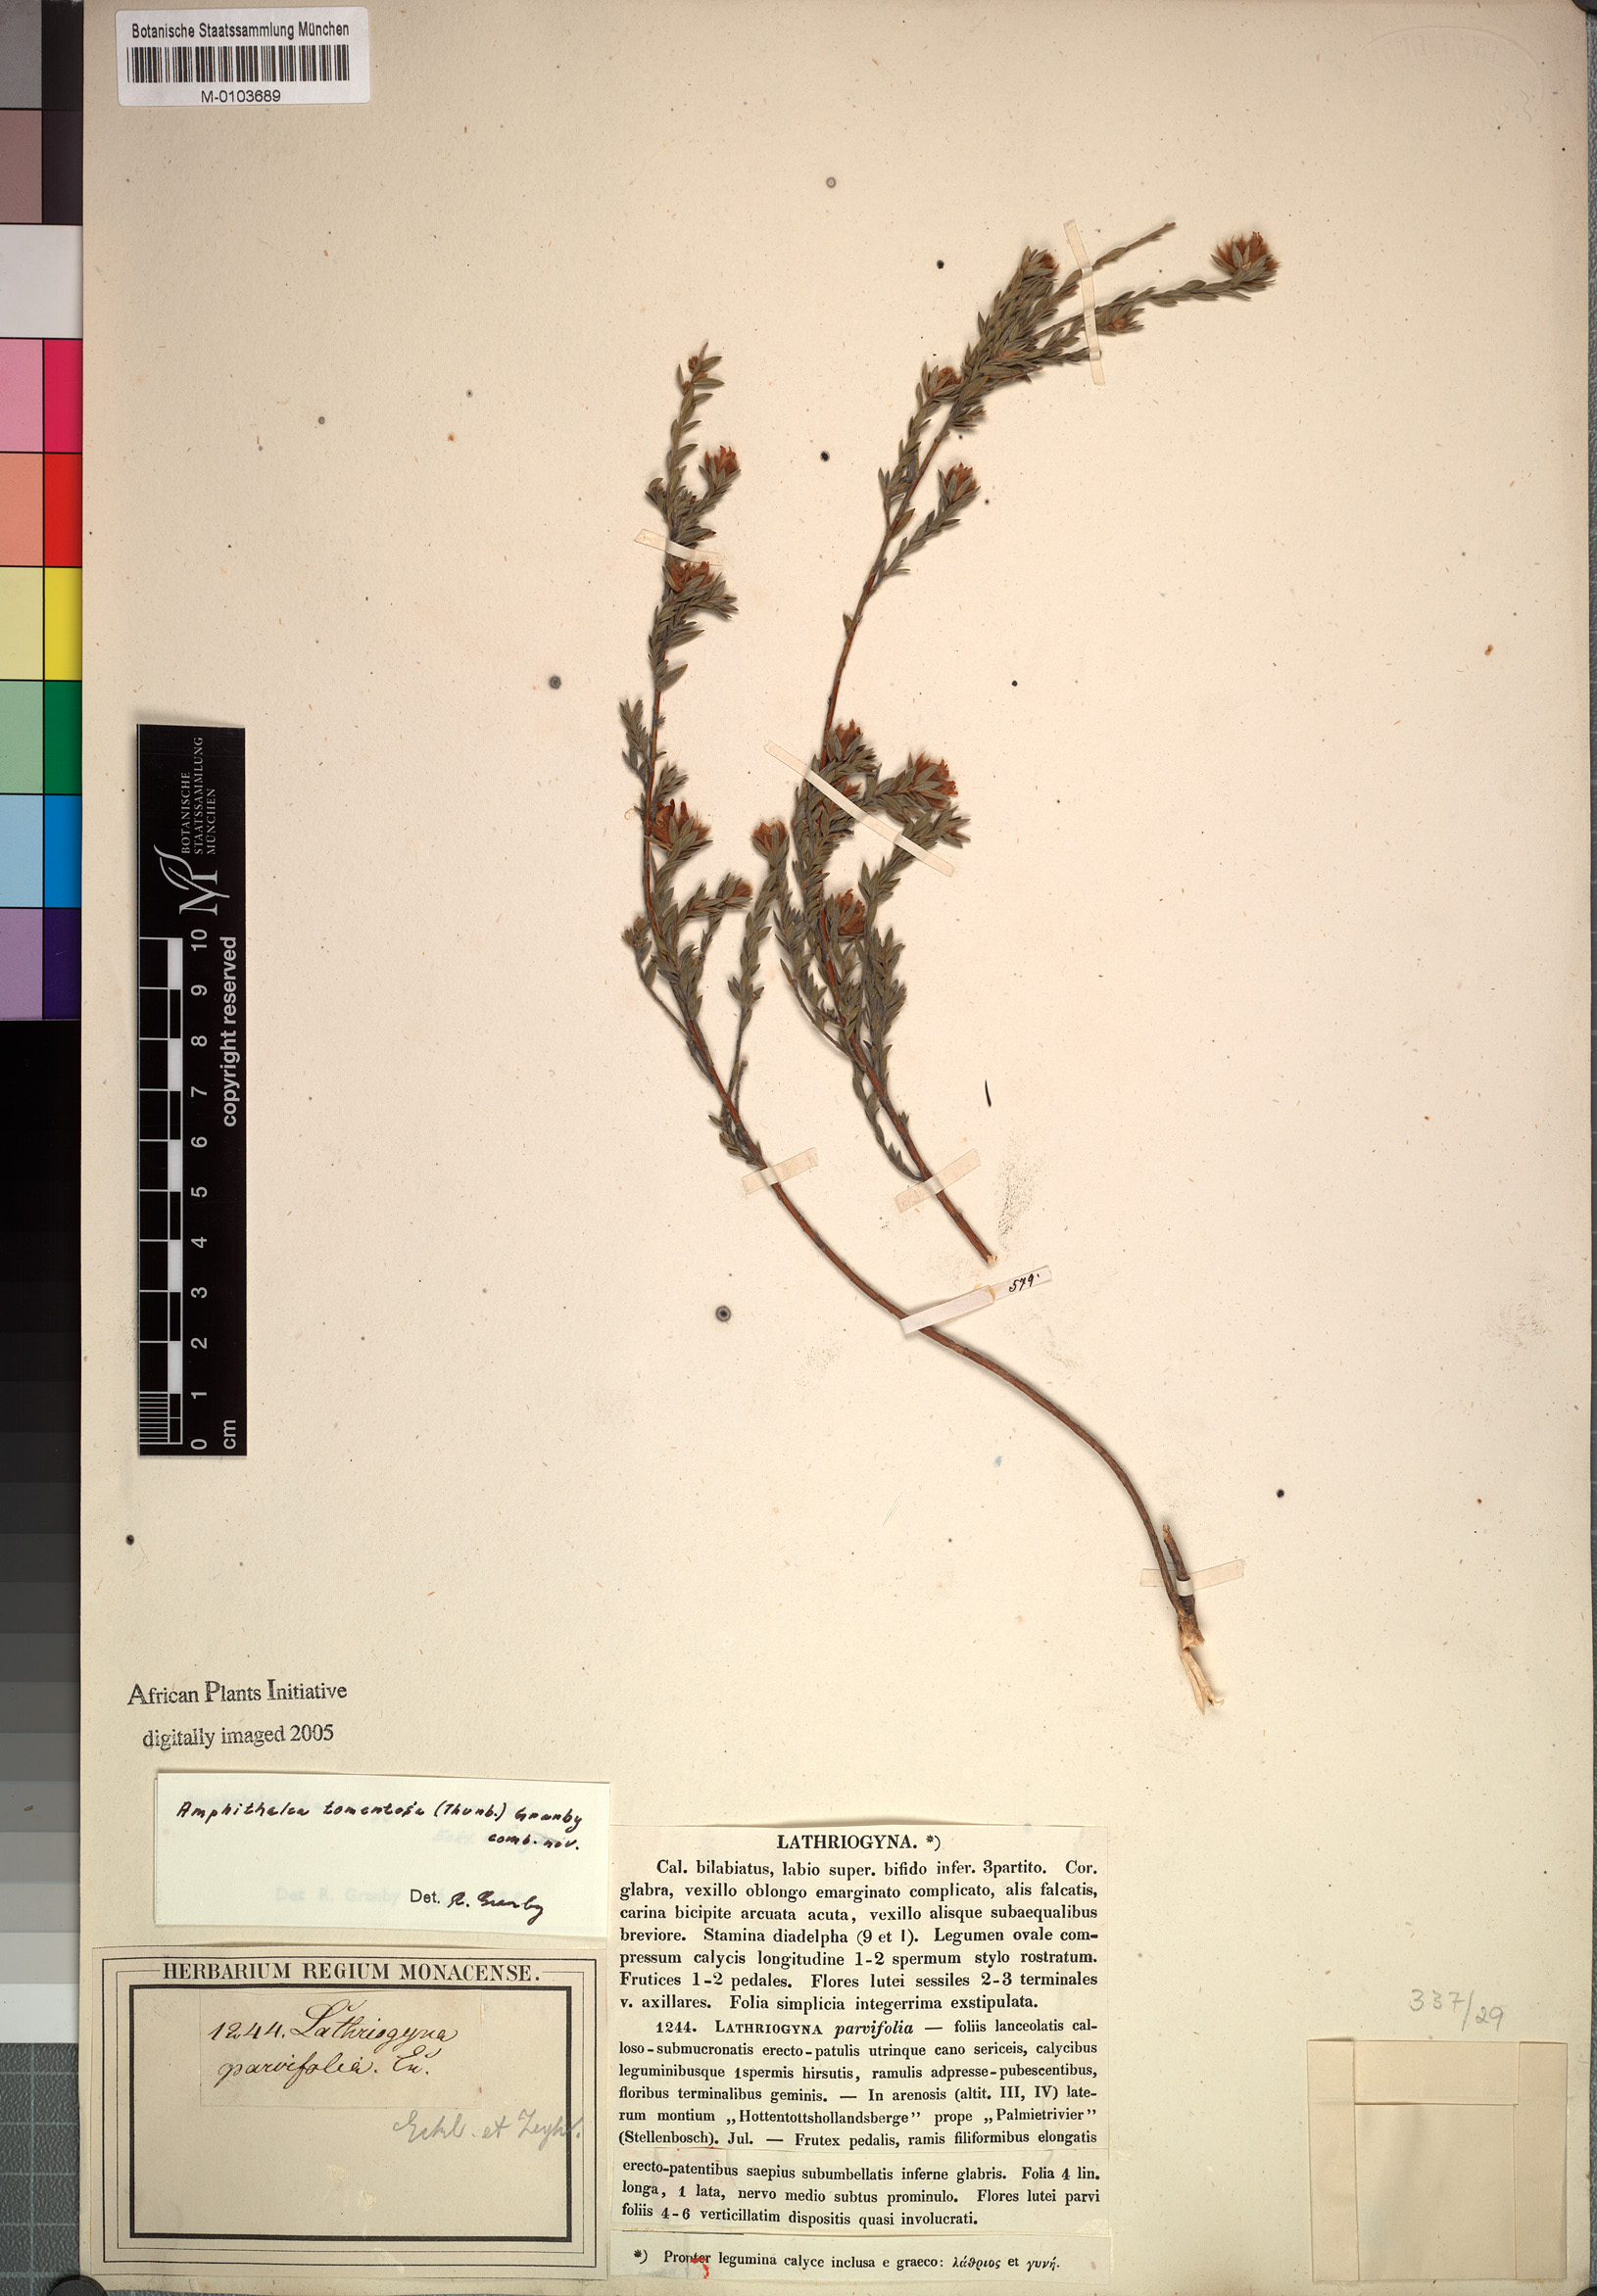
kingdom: Plantae
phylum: Tracheophyta
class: Magnoliopsida
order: Fabales
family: Fabaceae
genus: Amphithalea
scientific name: Amphithalea tomentosa
